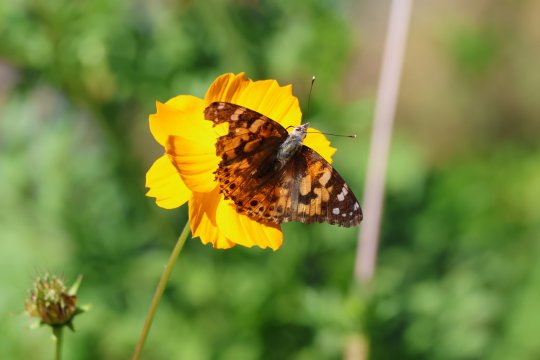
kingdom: Animalia
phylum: Arthropoda
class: Insecta
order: Lepidoptera
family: Nymphalidae
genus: Vanessa
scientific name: Vanessa cardui
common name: Painted Lady
